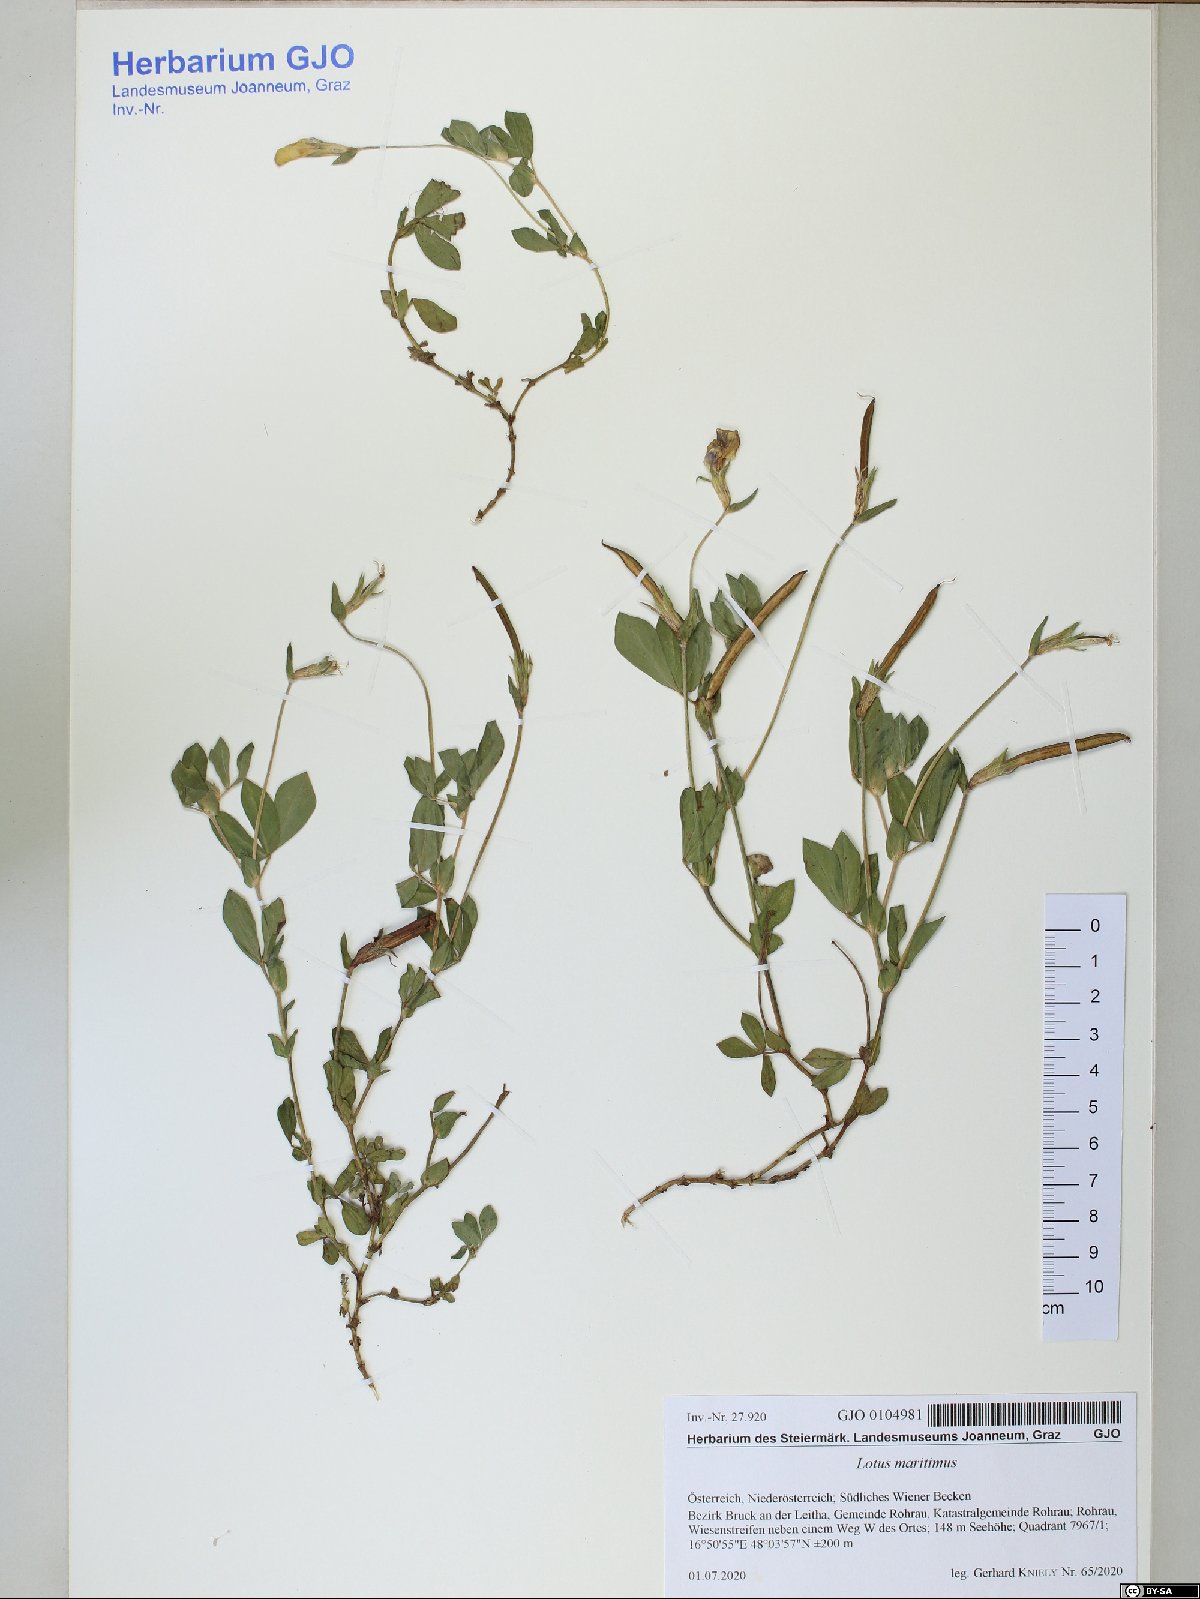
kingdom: Plantae
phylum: Tracheophyta
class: Magnoliopsida
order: Fabales
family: Fabaceae
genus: Lotus
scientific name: Lotus maritimus
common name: Dragon's-teeth
